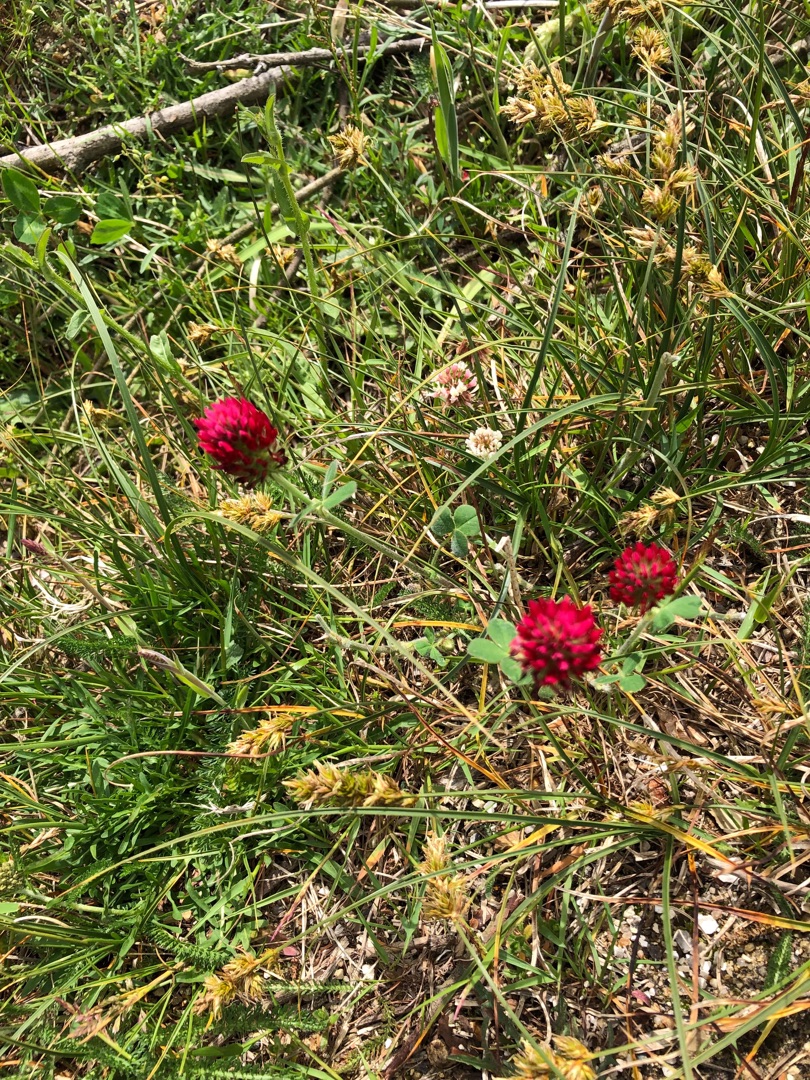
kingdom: Plantae
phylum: Tracheophyta
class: Magnoliopsida
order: Fabales
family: Fabaceae
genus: Trifolium
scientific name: Trifolium incarnatum
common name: Blod-kløver
